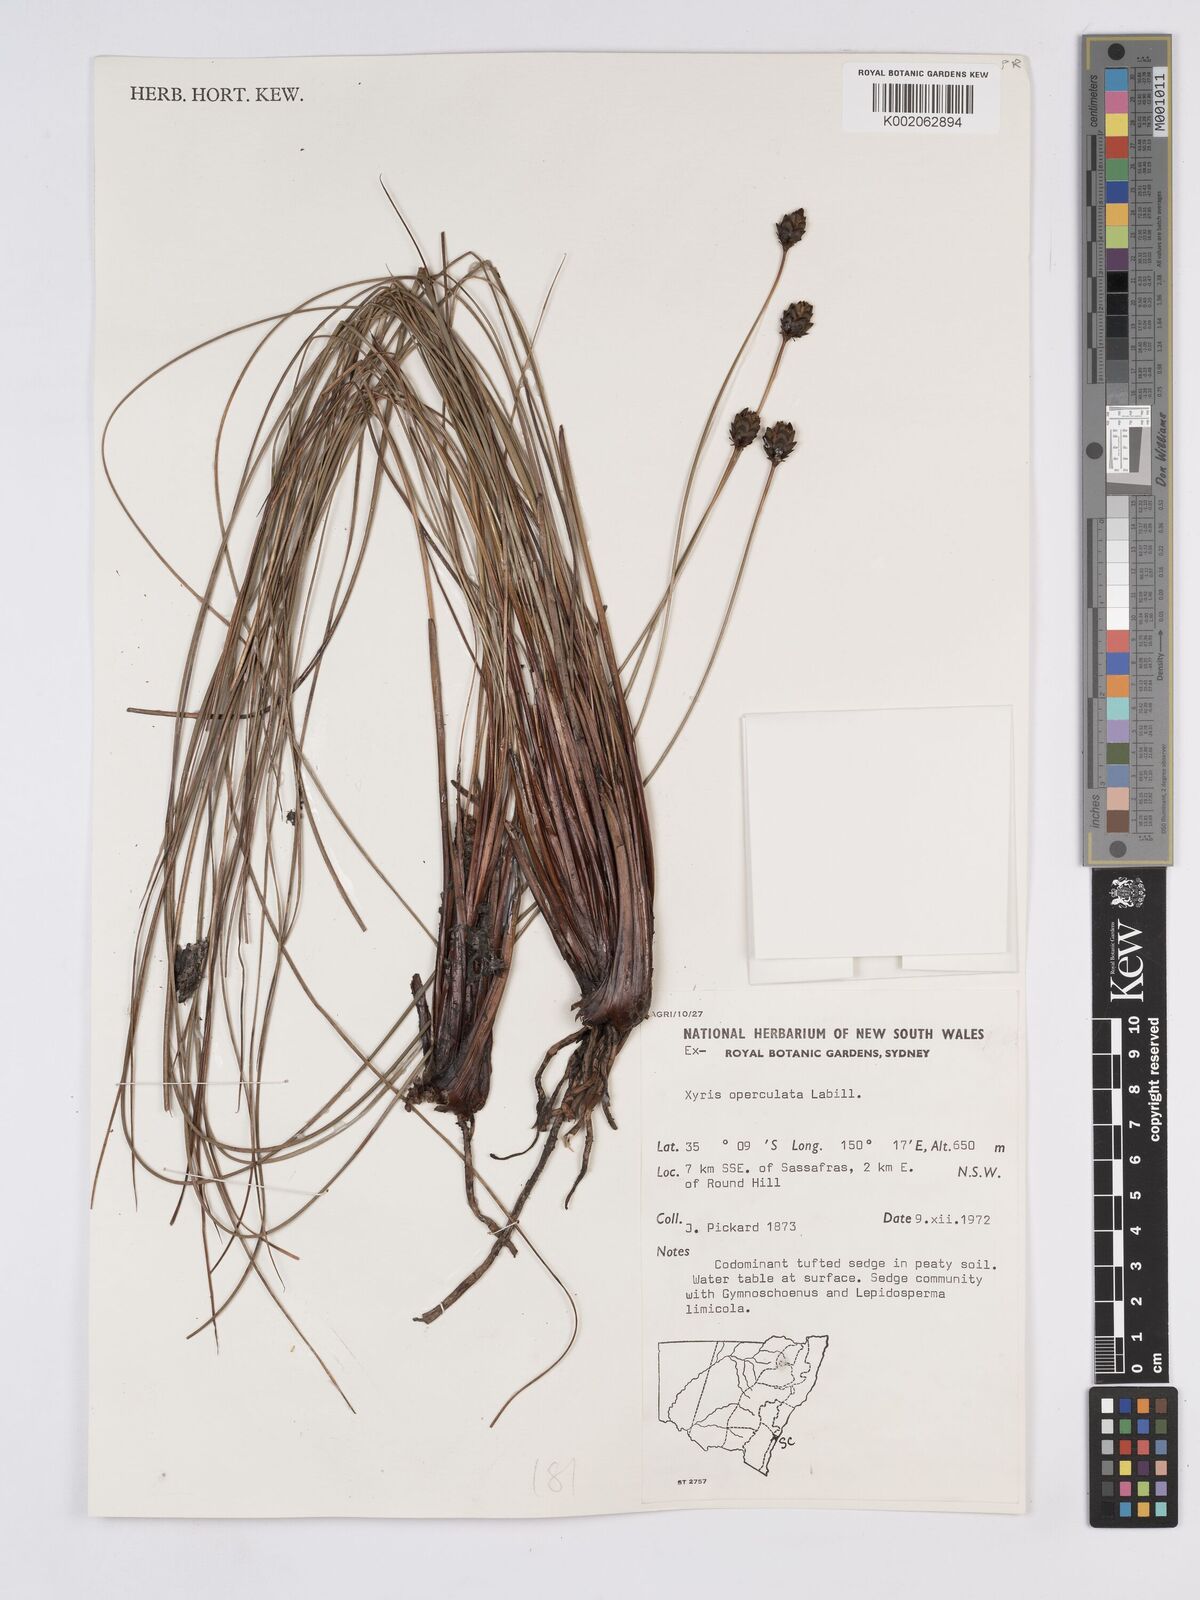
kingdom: Plantae
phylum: Tracheophyta
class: Liliopsida
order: Poales
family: Xyridaceae
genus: Xyris
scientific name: Xyris operculata
